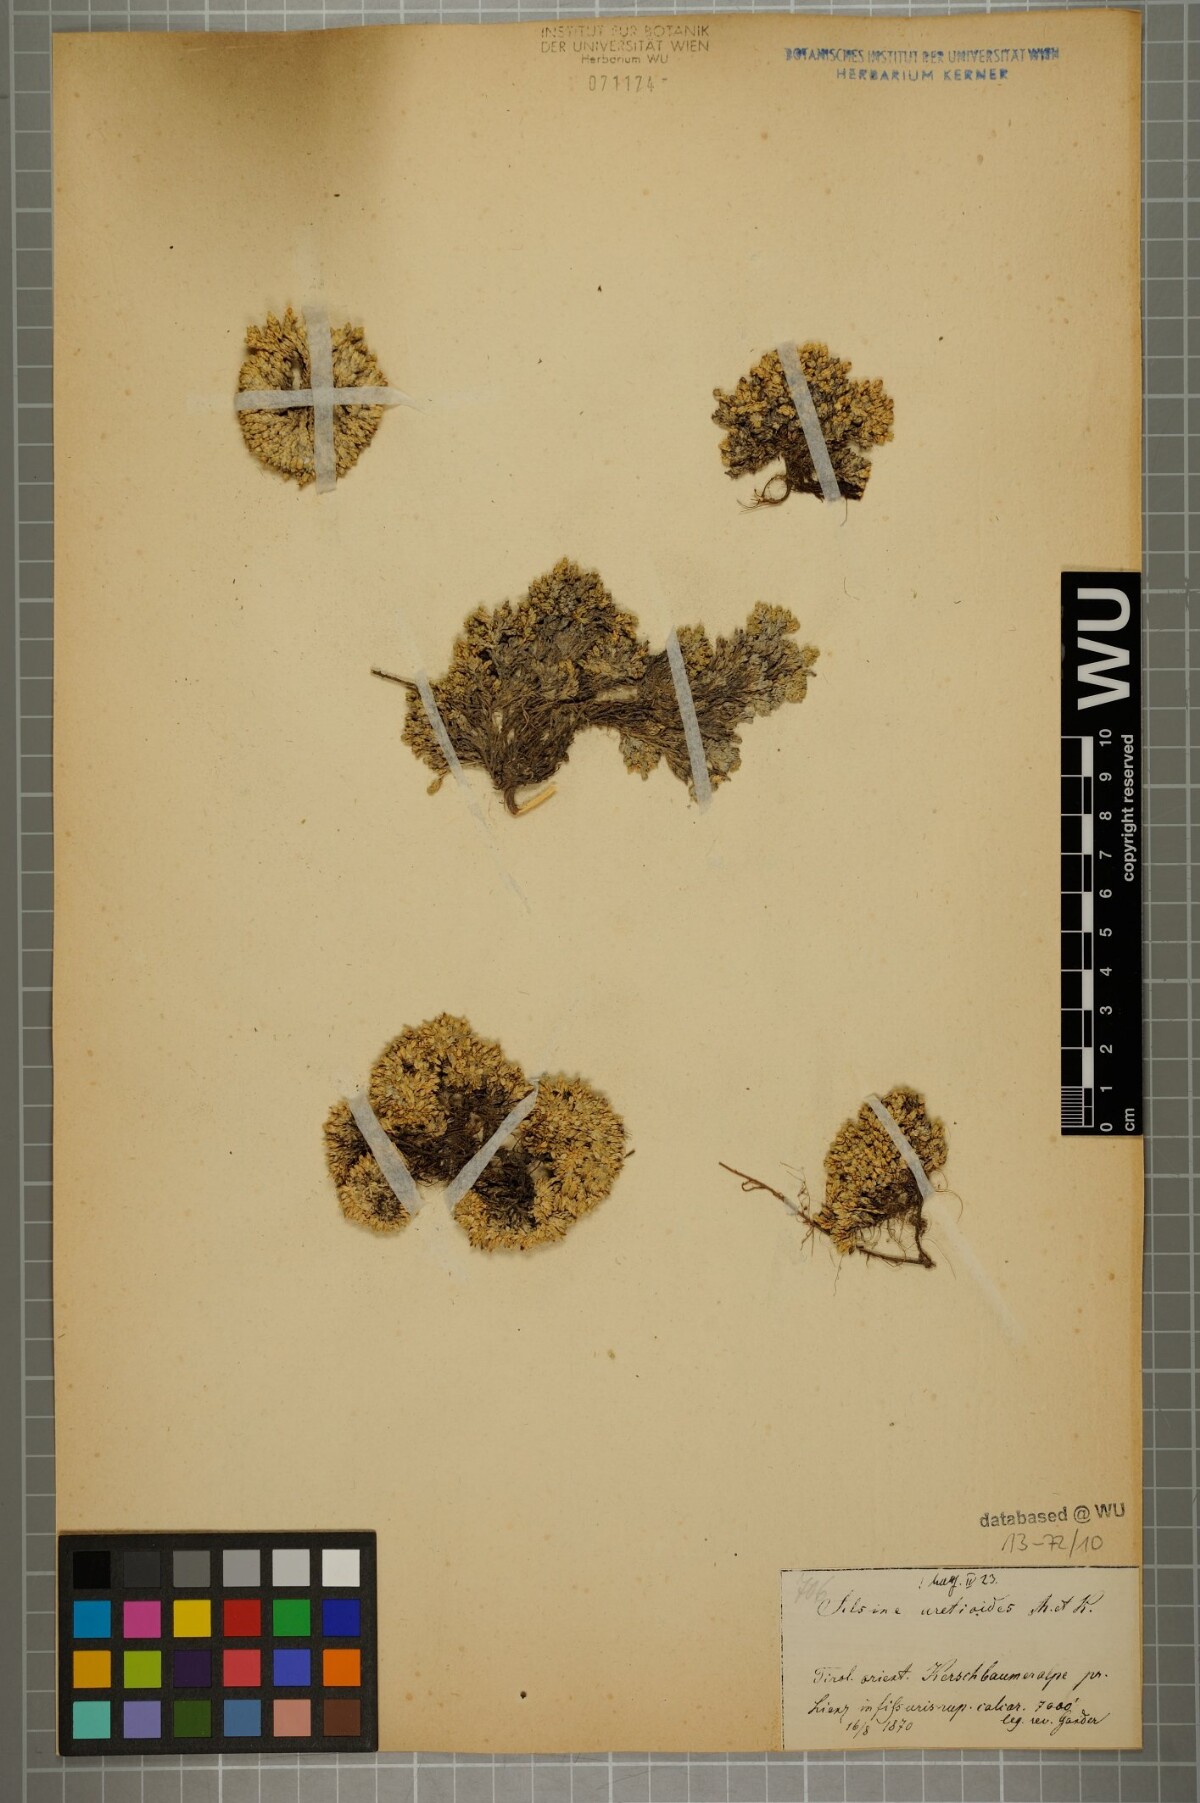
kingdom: Plantae
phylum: Tracheophyta
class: Magnoliopsida
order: Caryophyllales
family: Caryophyllaceae
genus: Facchinia
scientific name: Facchinia cherlerioides
